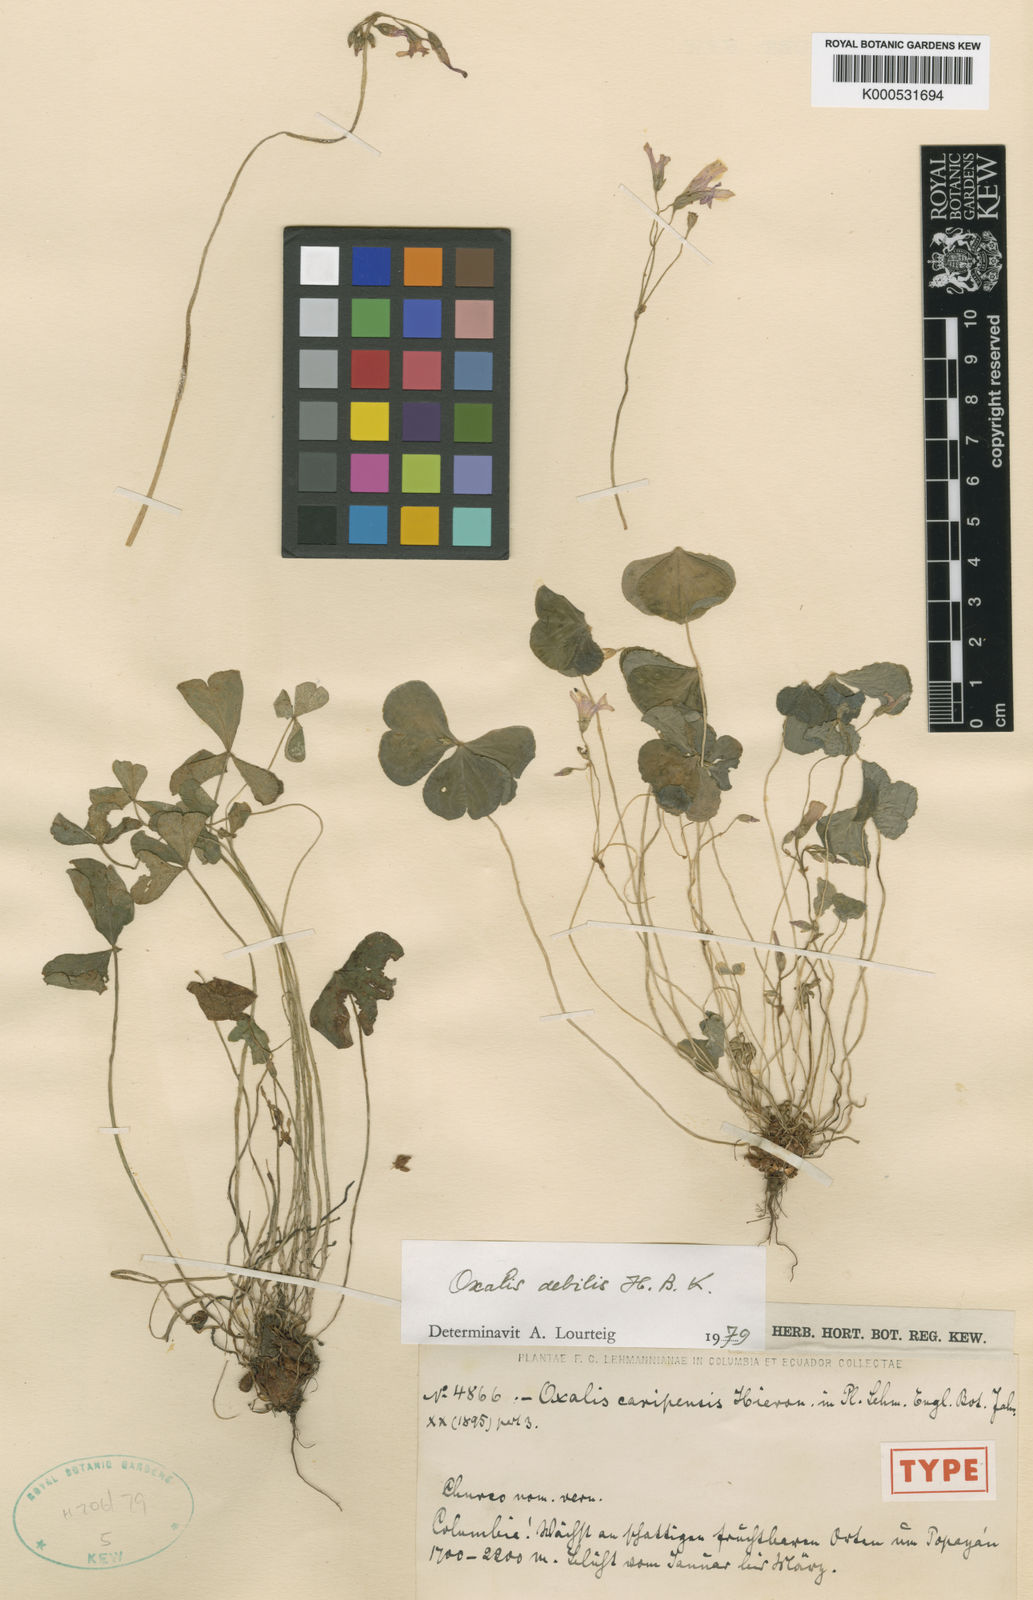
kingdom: Plantae
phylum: Tracheophyta
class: Magnoliopsida
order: Oxalidales
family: Oxalidaceae
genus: Oxalis
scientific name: Oxalis debilis
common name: Large-flowered pink-sorrel
